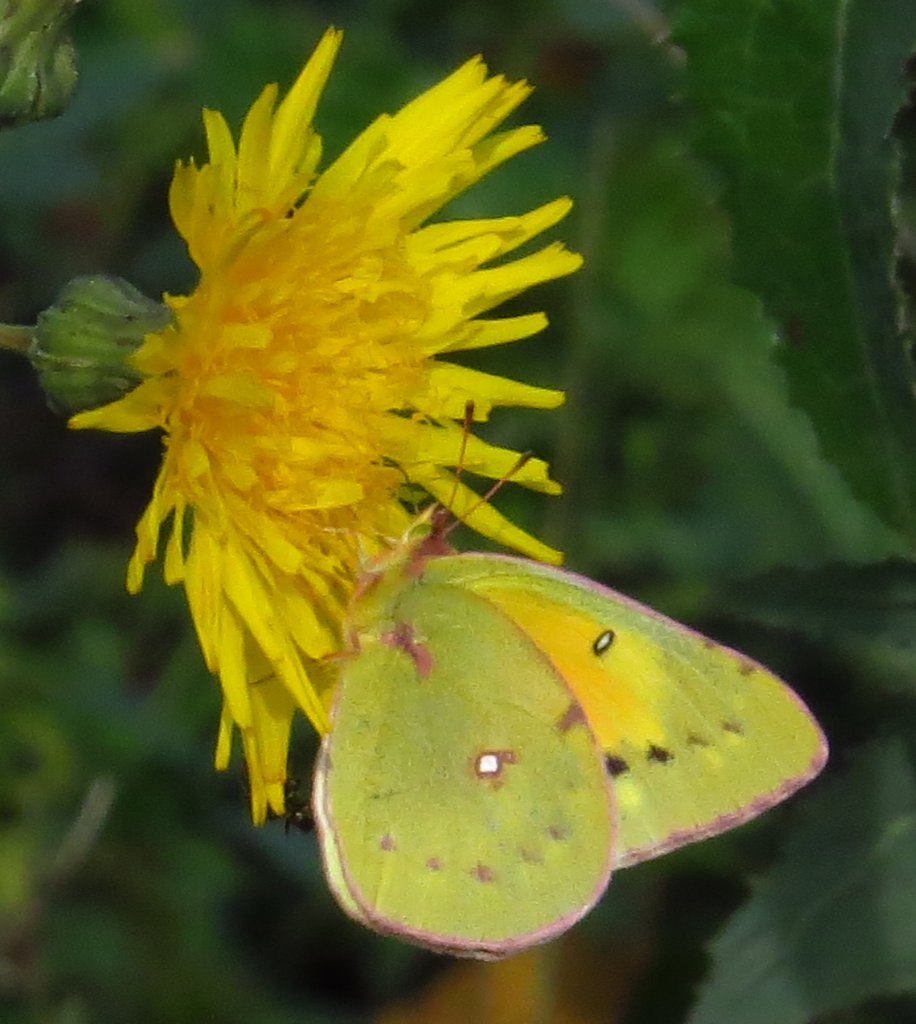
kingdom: Animalia
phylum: Arthropoda
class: Insecta
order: Lepidoptera
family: Pieridae
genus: Colias
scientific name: Colias eurytheme
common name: Orange Sulphur
